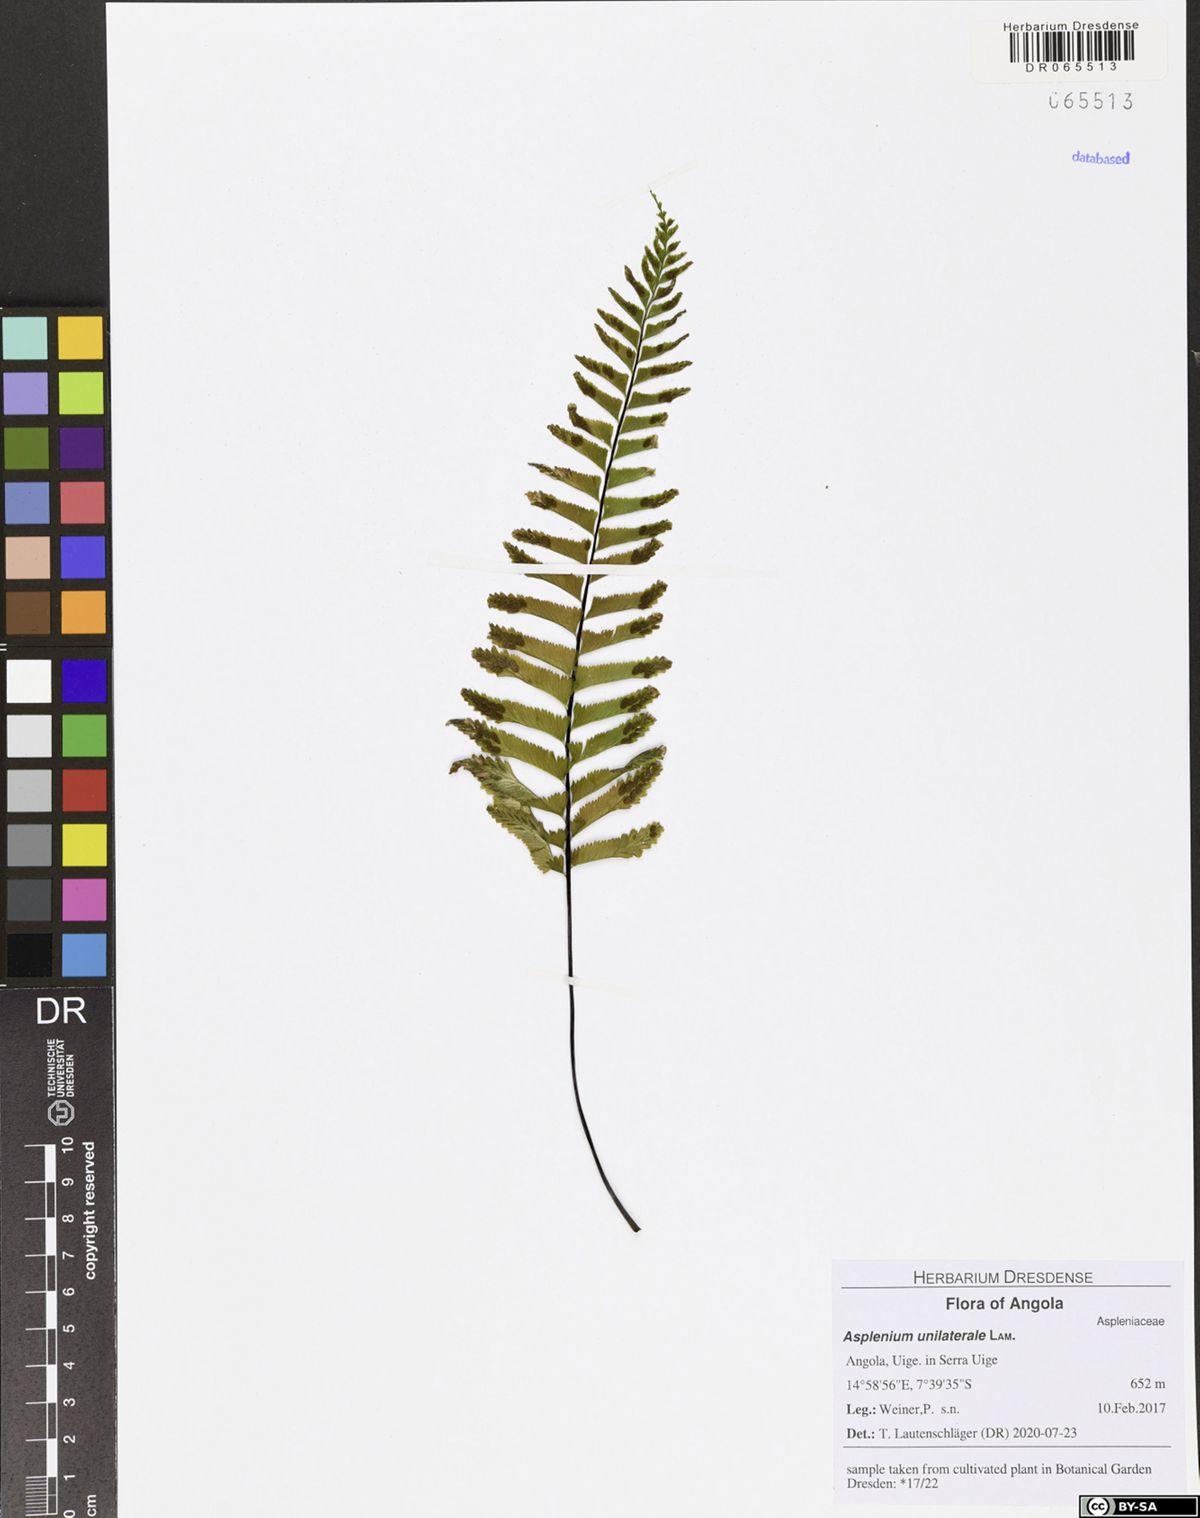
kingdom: Plantae
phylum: Tracheophyta
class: Polypodiopsida
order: Polypodiales
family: Aspleniaceae
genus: Hymenasplenium
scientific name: Hymenasplenium unilaterale
